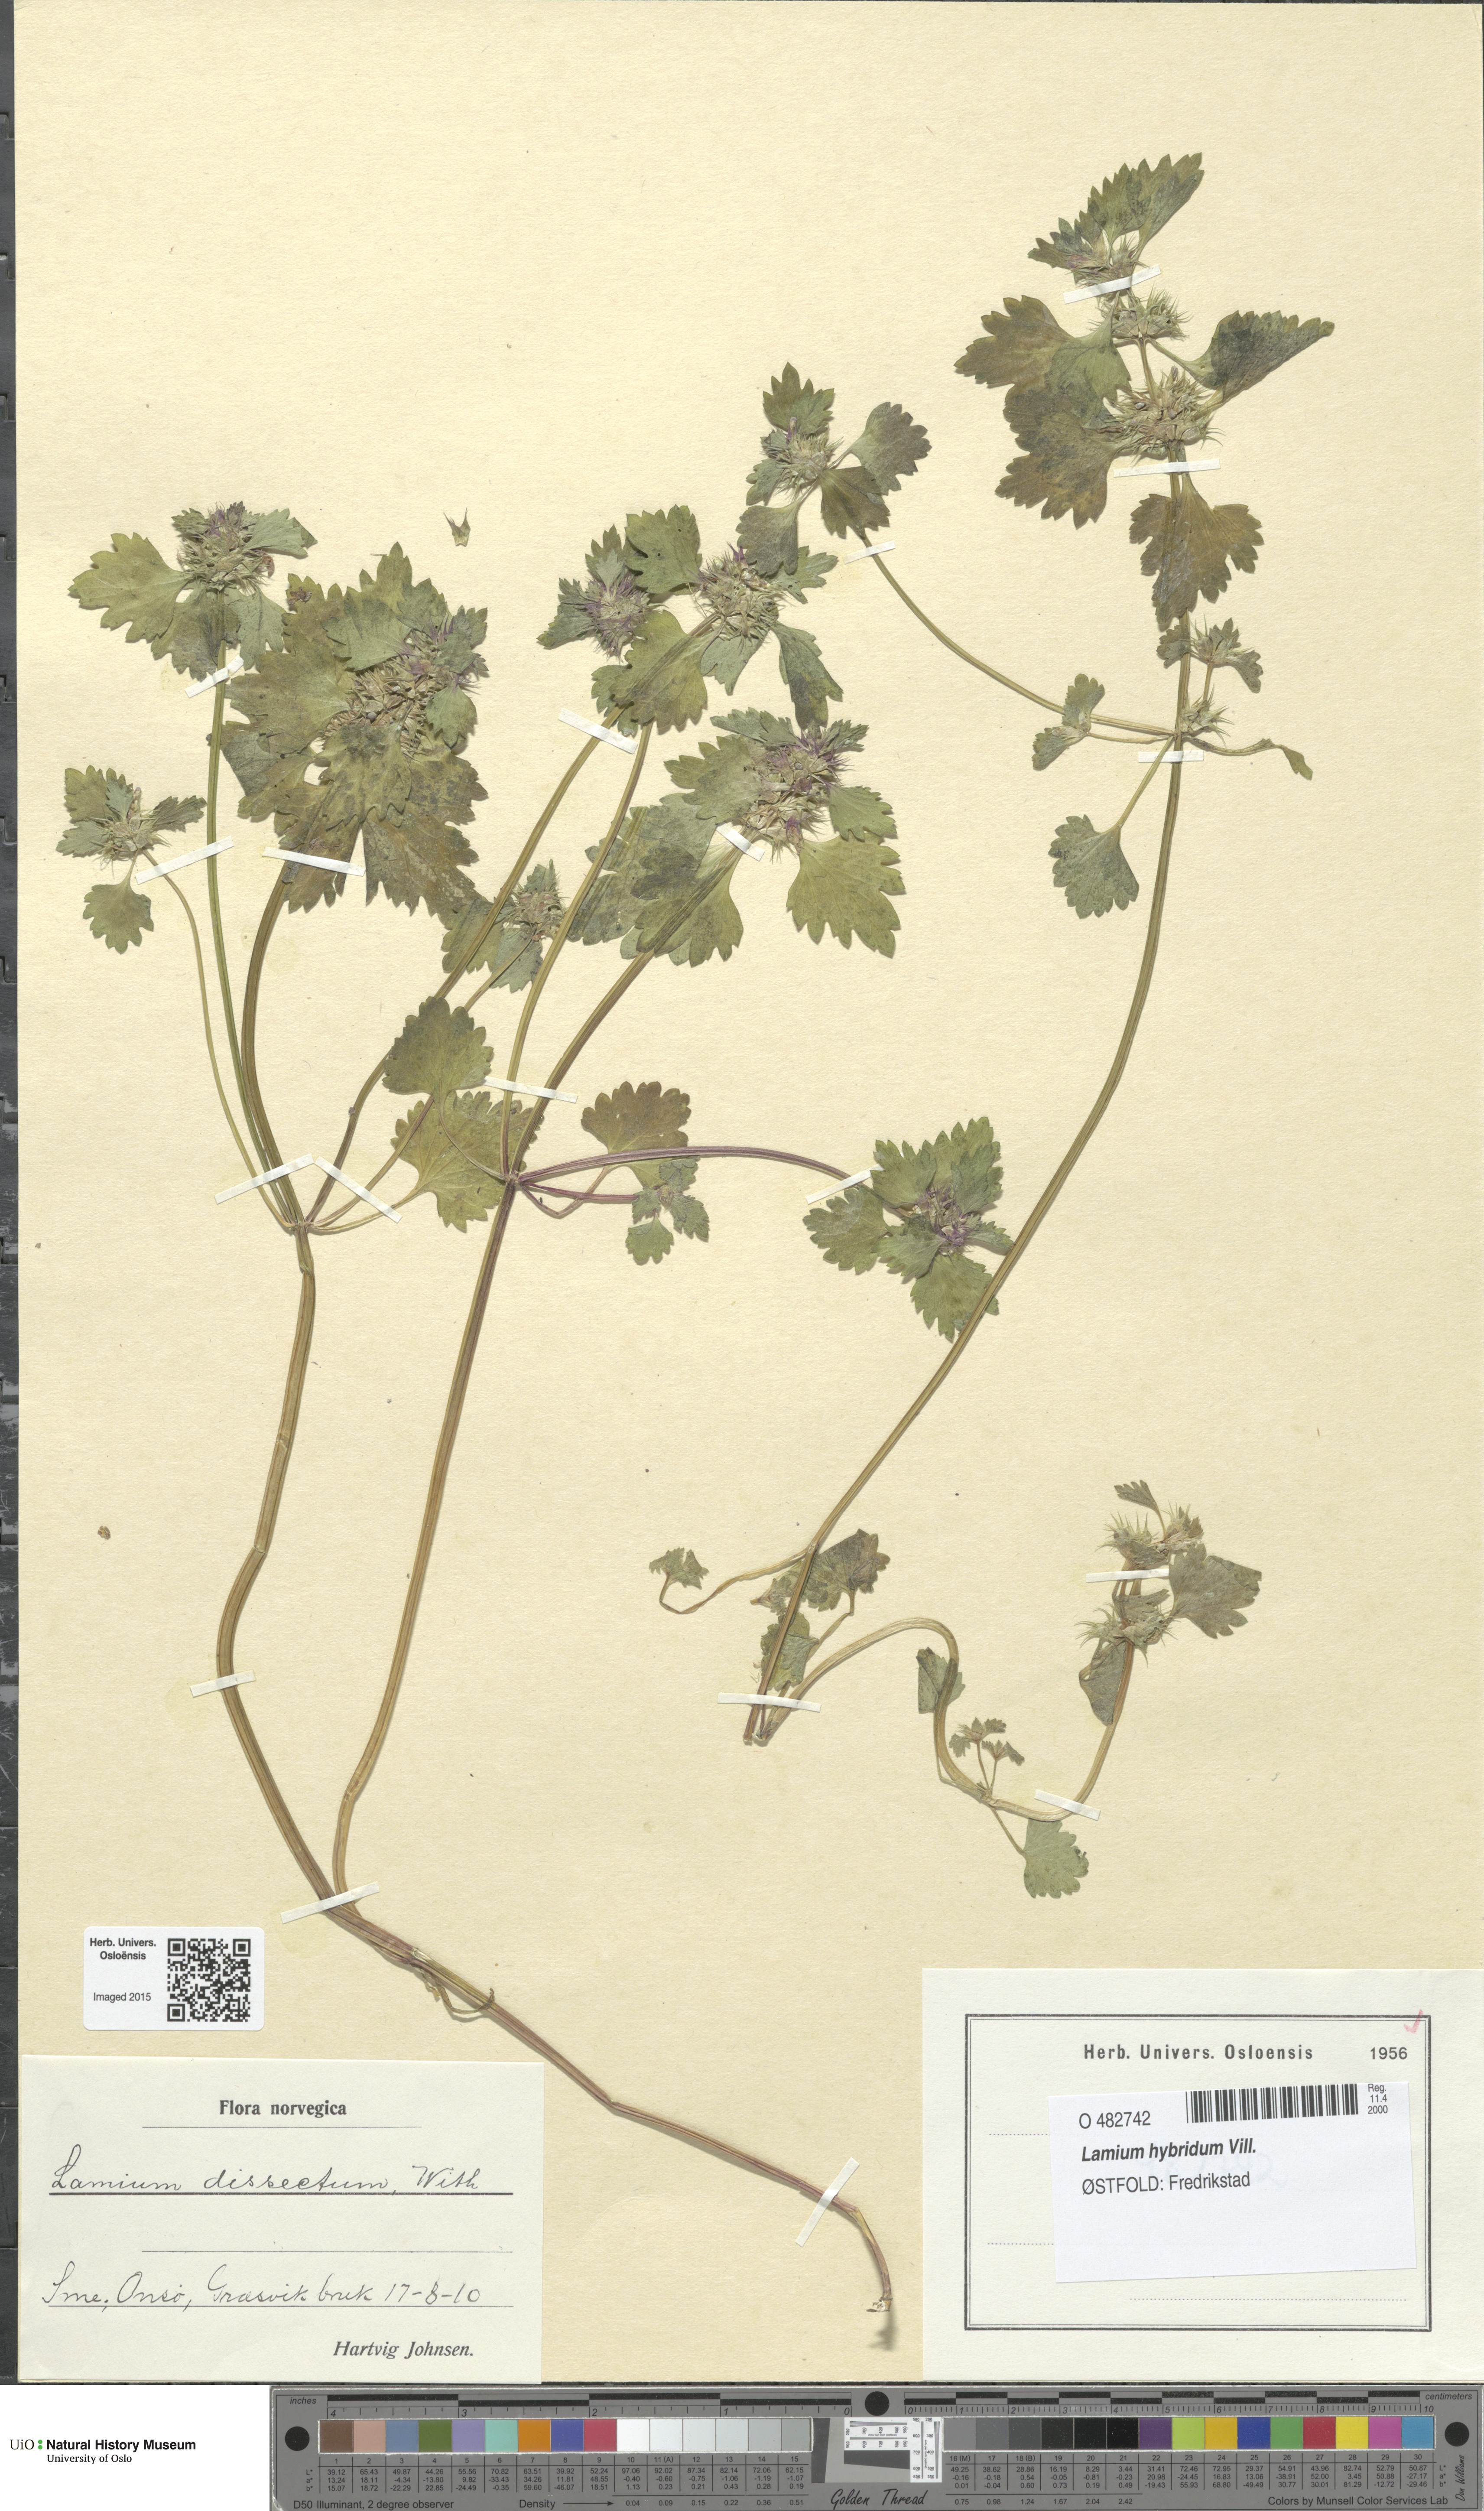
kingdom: Plantae
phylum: Tracheophyta
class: Magnoliopsida
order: Lamiales
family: Lamiaceae
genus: Lamium
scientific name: Lamium hybridum
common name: Cut-leaved dead-nettle
